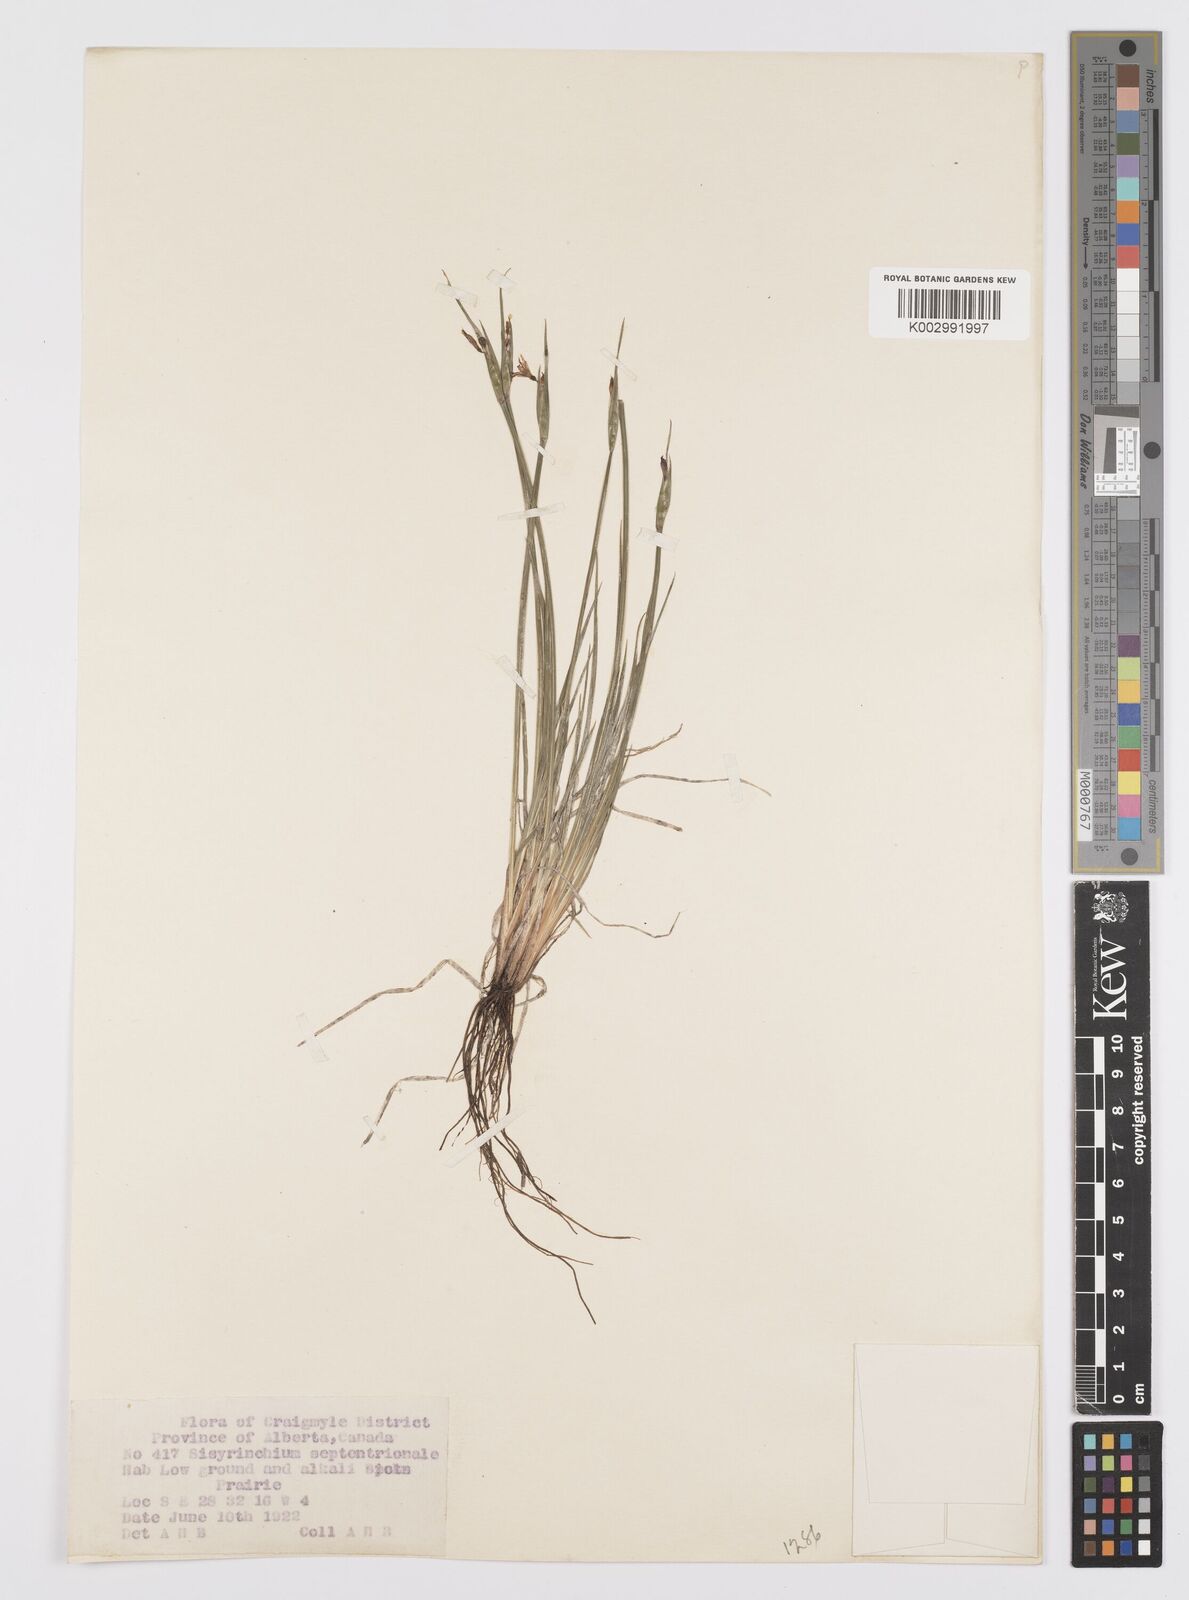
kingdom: Plantae
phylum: Tracheophyta
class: Liliopsida
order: Asparagales
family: Iridaceae
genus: Sisyrinchium
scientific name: Sisyrinchium septentrionale
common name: Northern blue-eyed-grass
